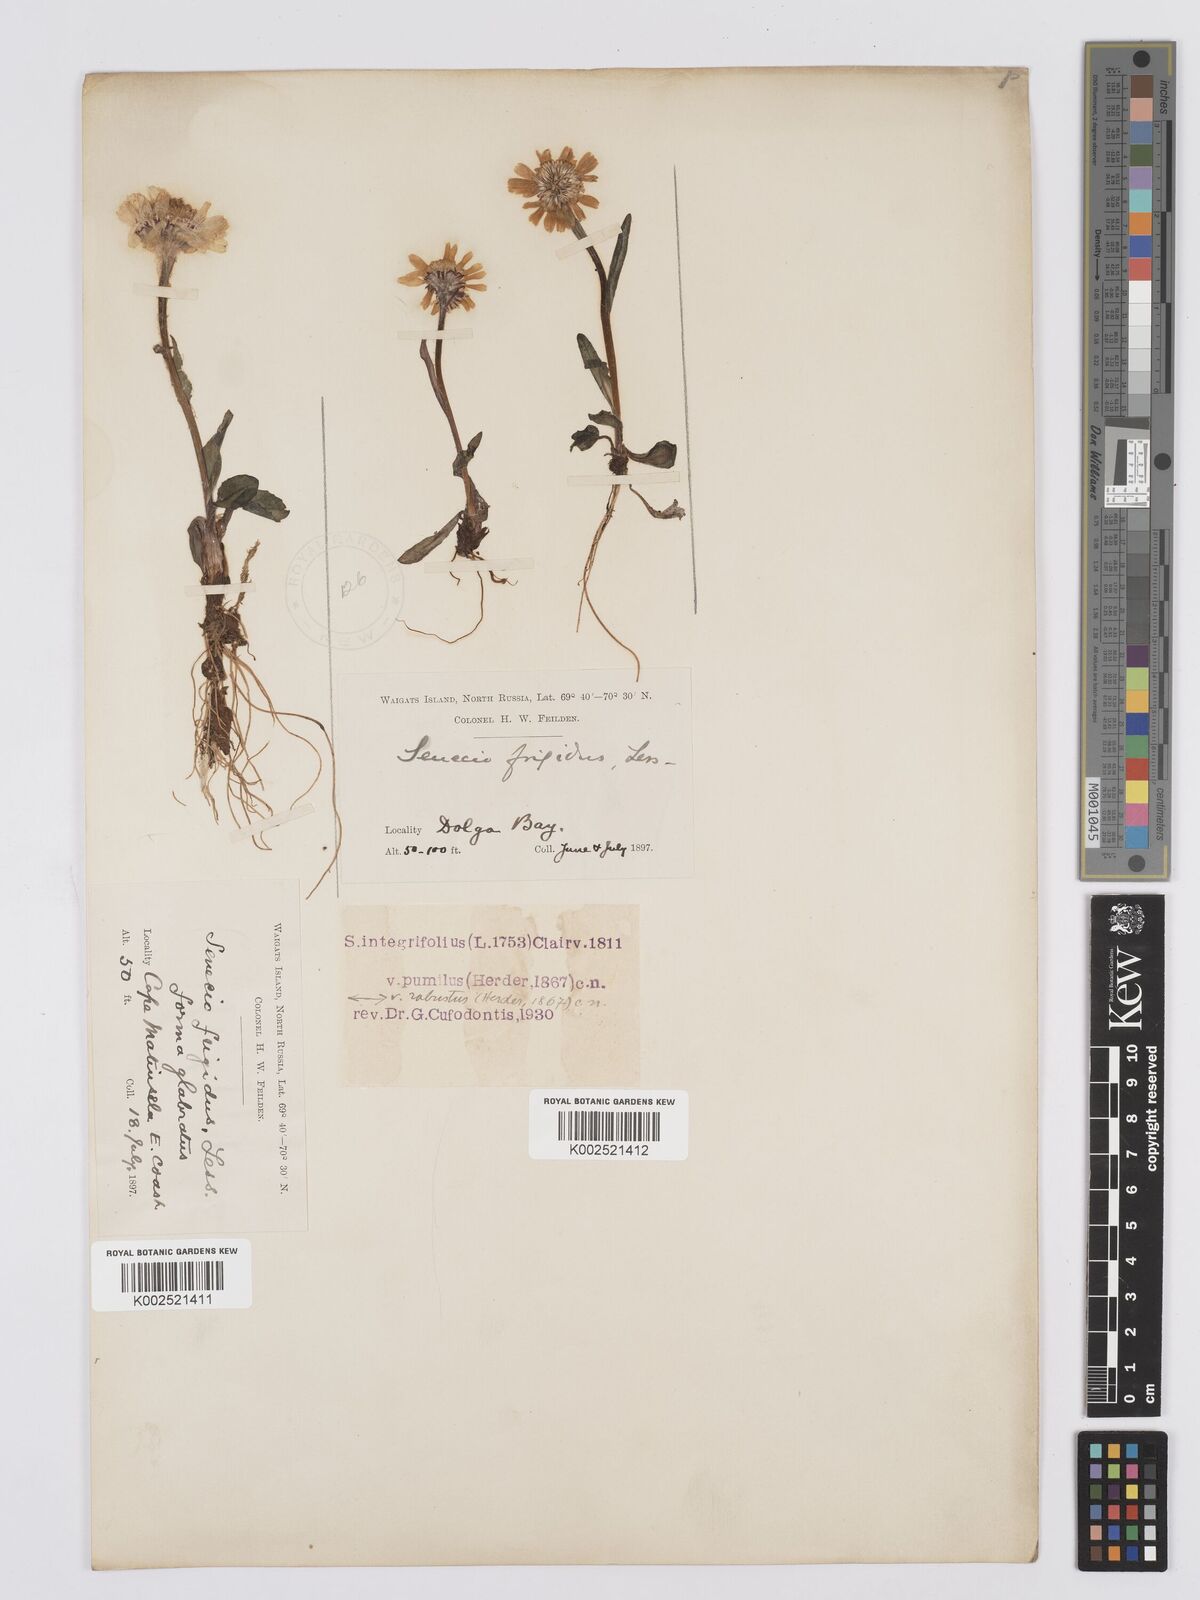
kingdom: Plantae
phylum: Tracheophyta
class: Magnoliopsida
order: Asterales
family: Asteraceae
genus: Tephroseris
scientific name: Tephroseris integrifolia
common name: Field fleawort
